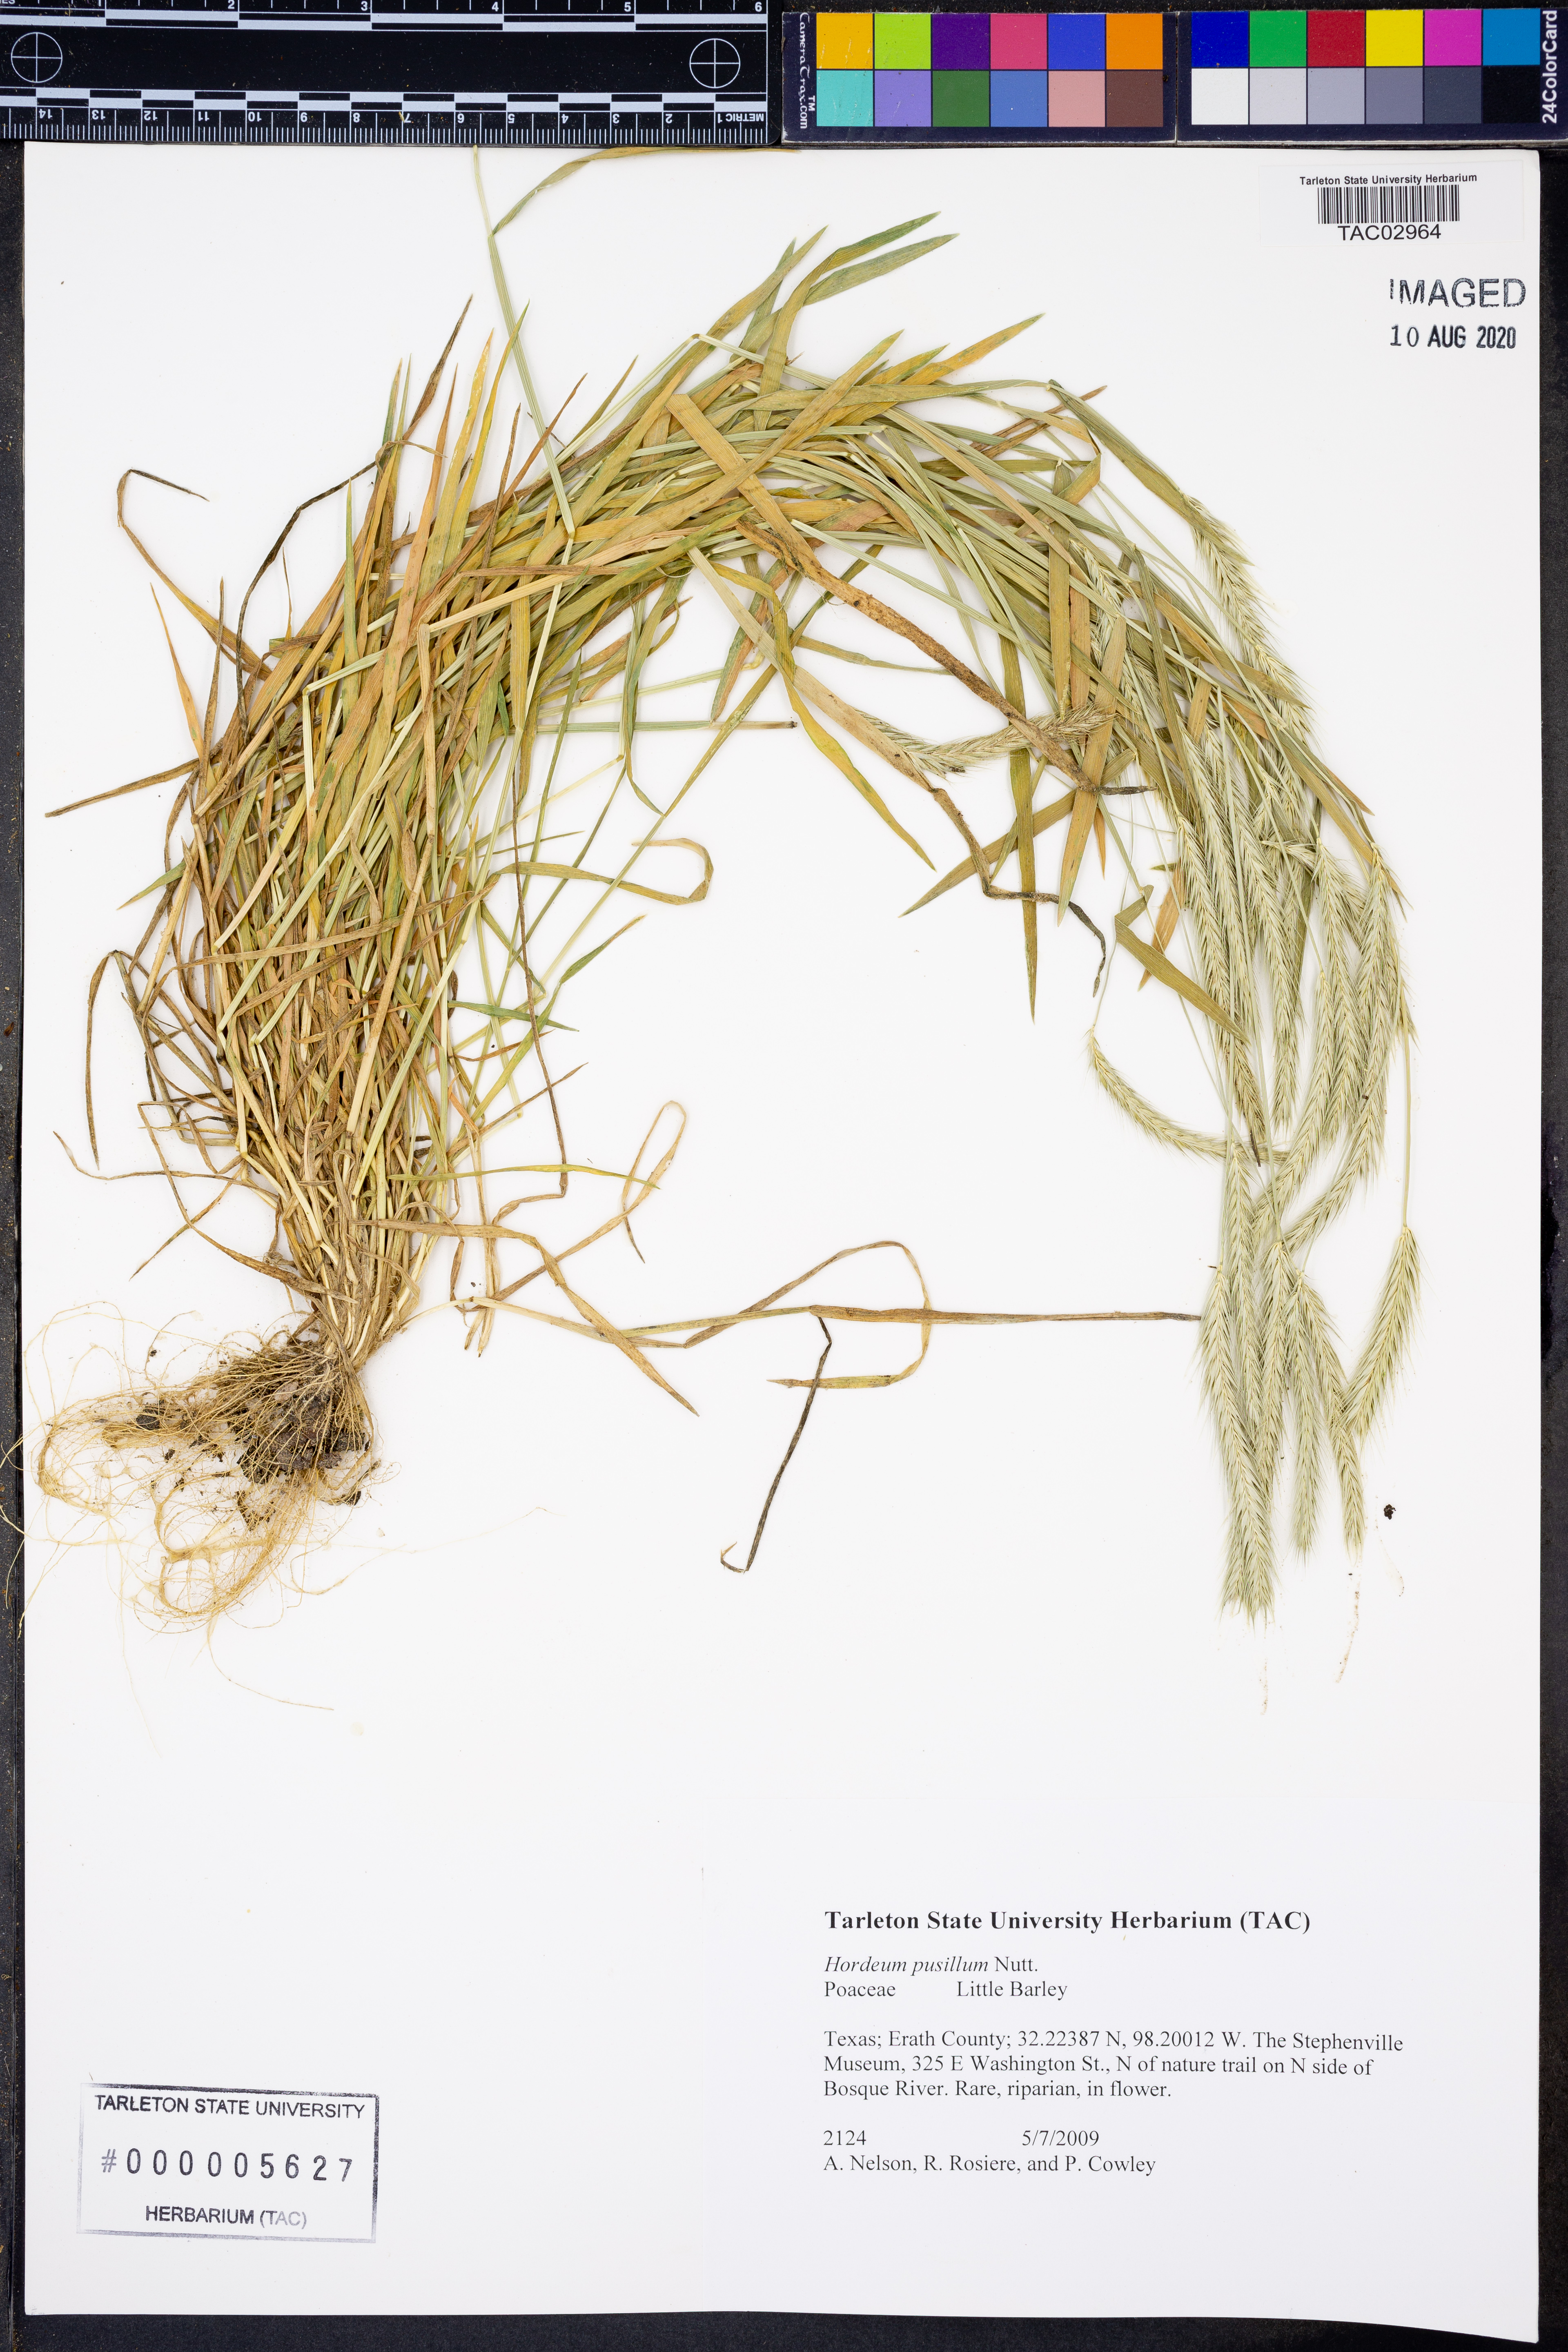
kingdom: Plantae
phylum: Tracheophyta
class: Liliopsida
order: Poales
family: Poaceae
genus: Hordeum
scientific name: Hordeum pusillum
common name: Little barley
